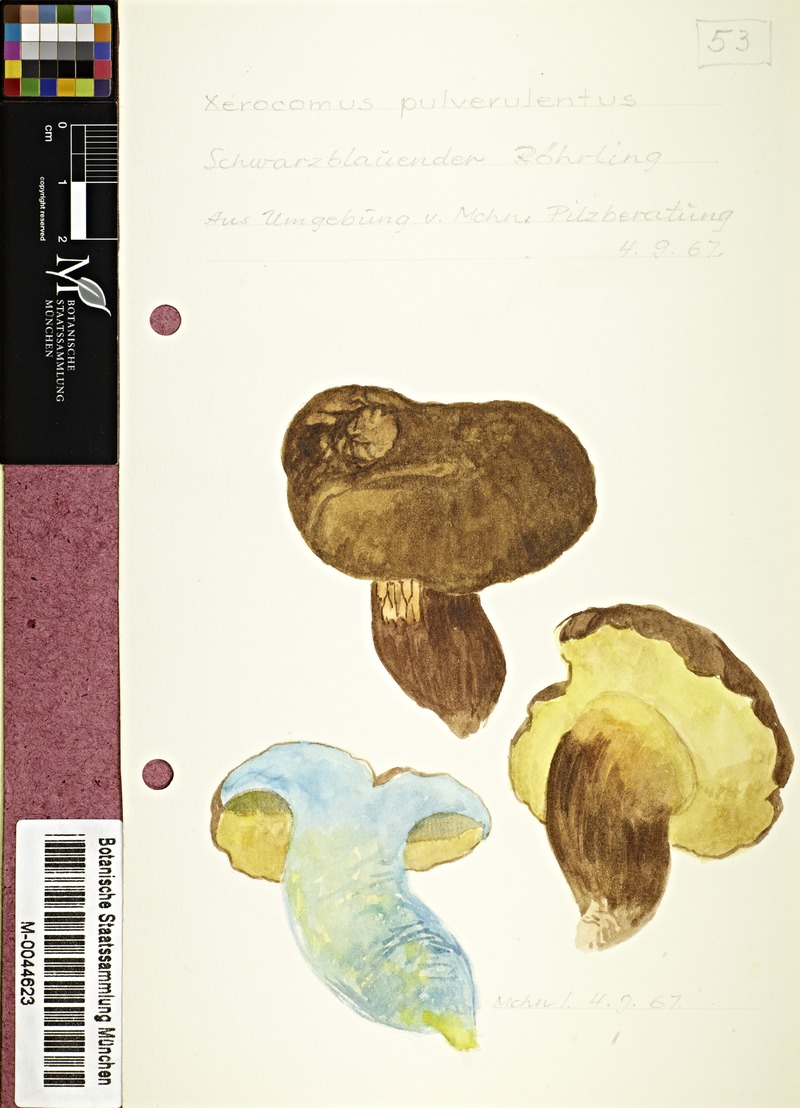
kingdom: Fungi
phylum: Basidiomycota
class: Agaricomycetes
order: Boletales
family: Boletaceae
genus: Cyanoboletus
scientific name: Cyanoboletus pulverulentus
